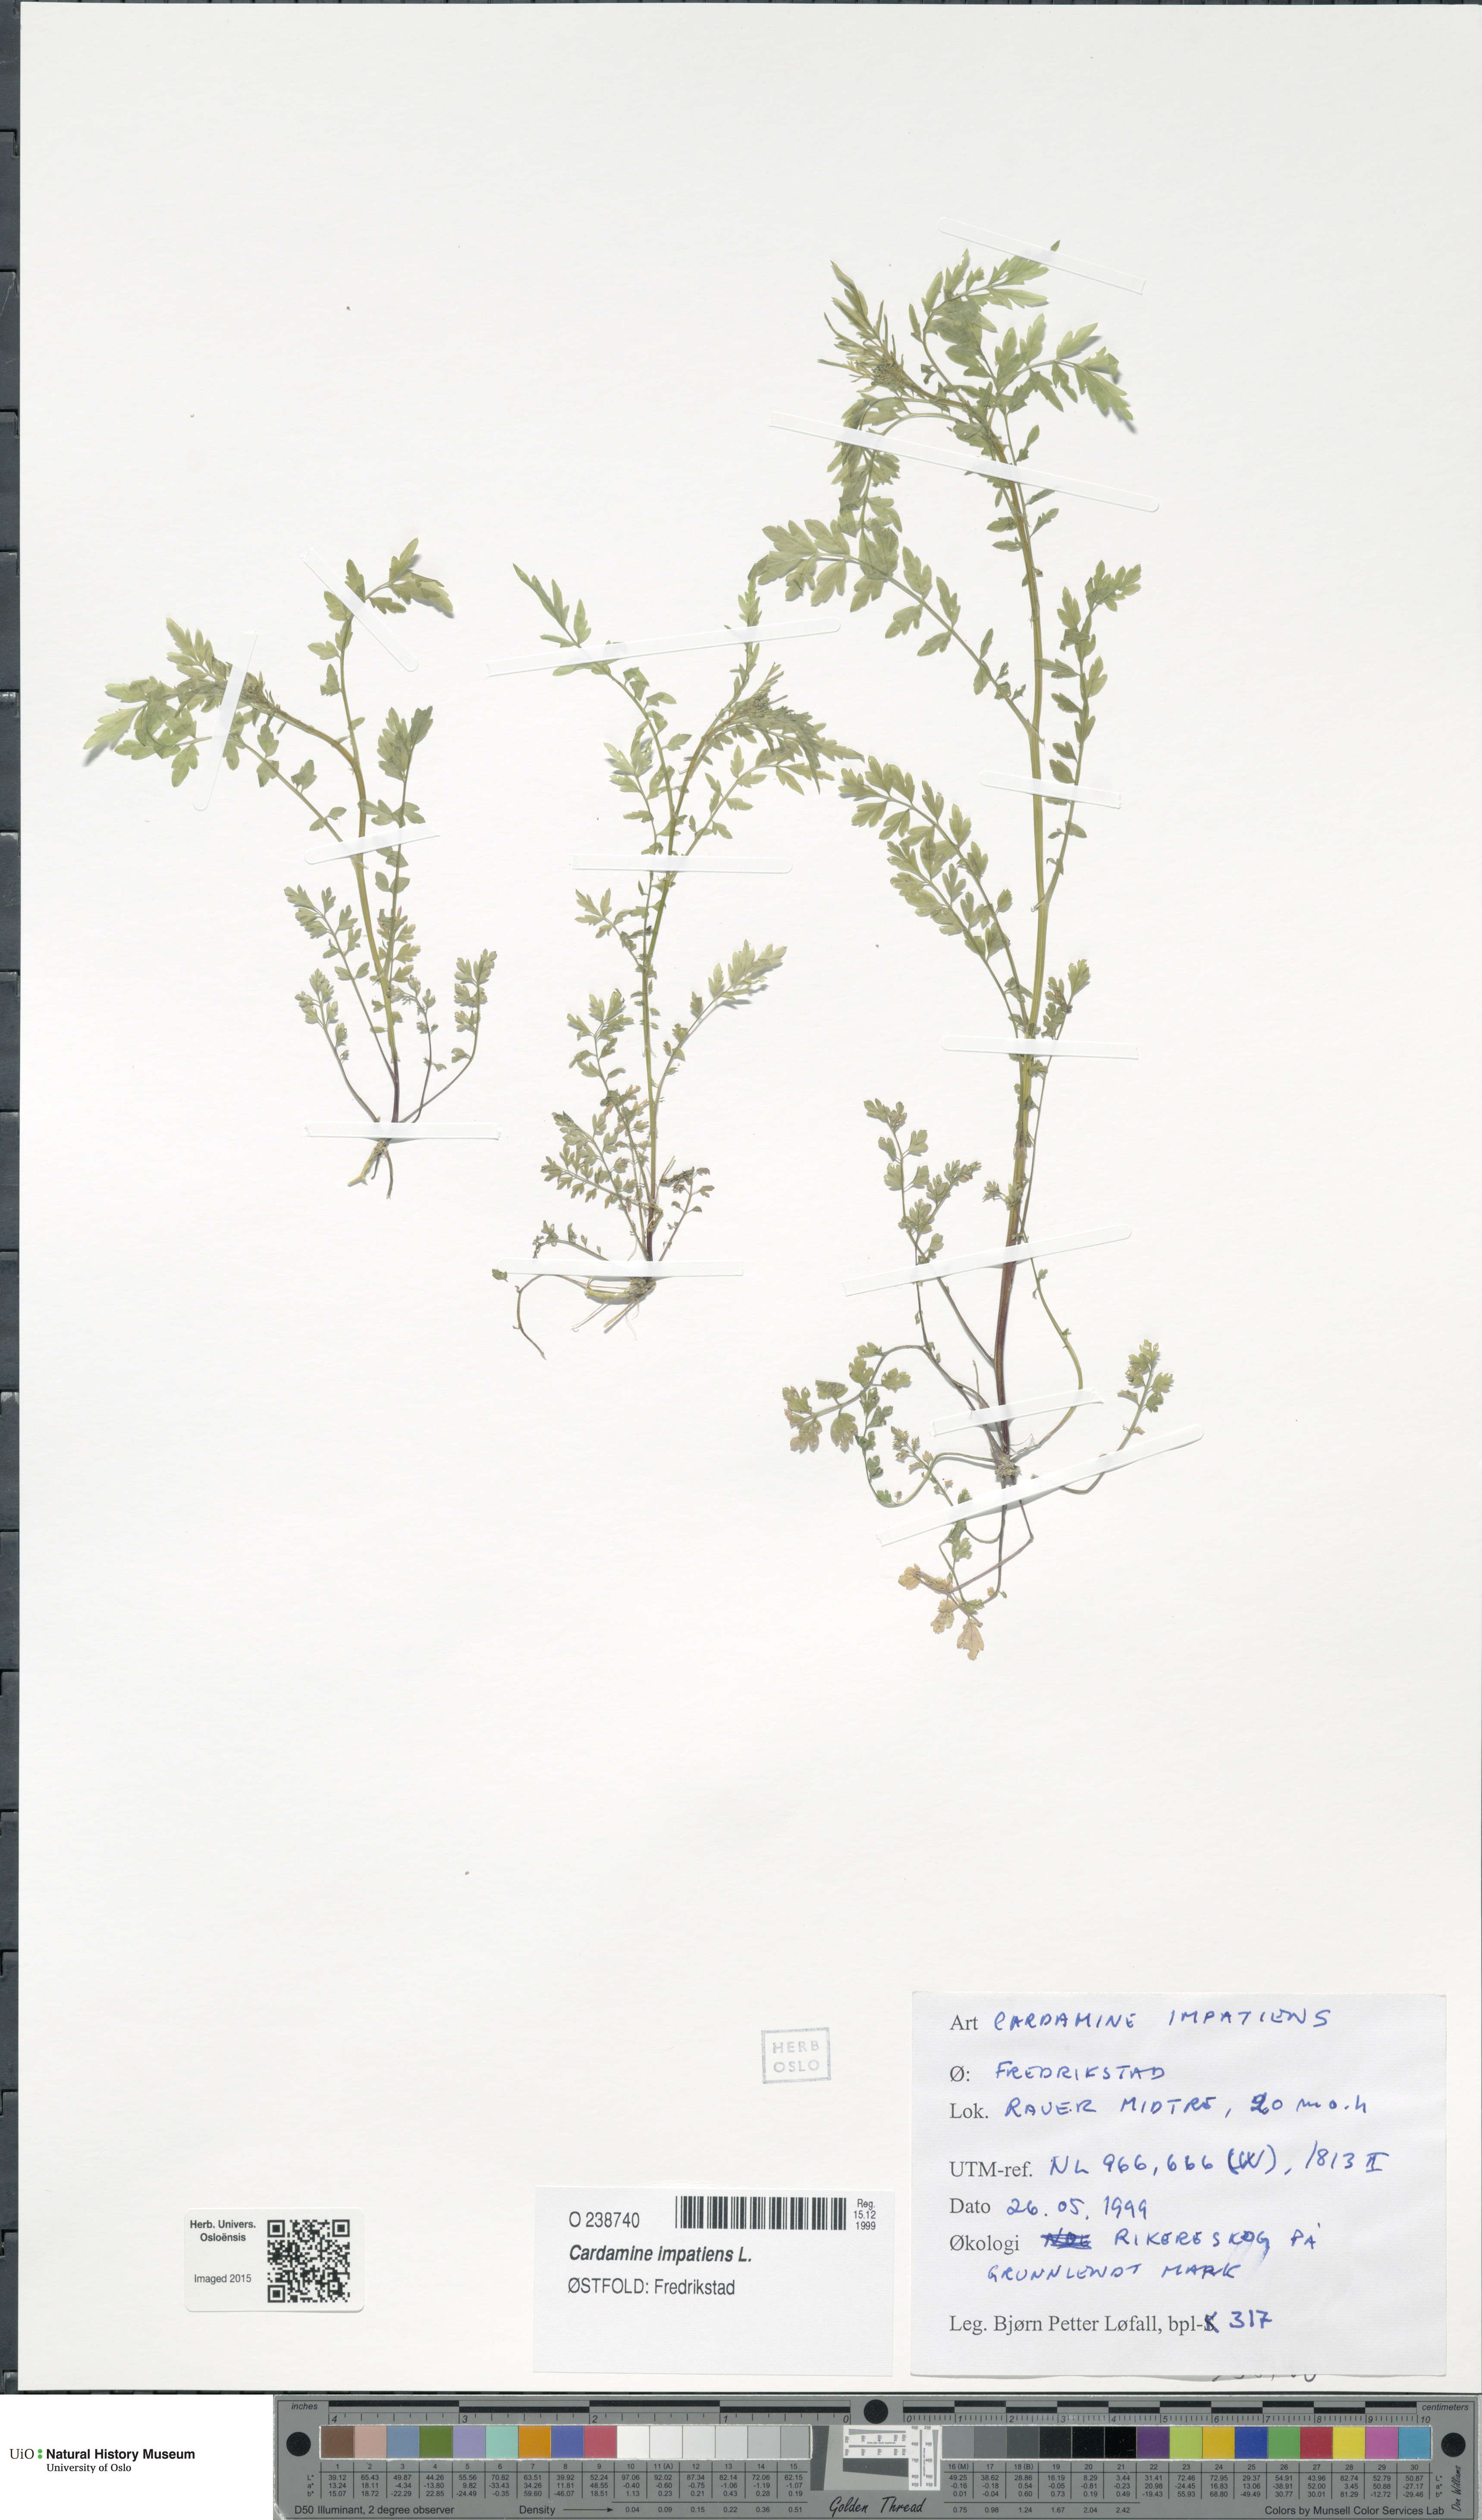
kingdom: Plantae
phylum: Tracheophyta
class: Magnoliopsida
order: Brassicales
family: Brassicaceae
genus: Cardamine
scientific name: Cardamine impatiens
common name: Narrow-leaved bitter-cress
